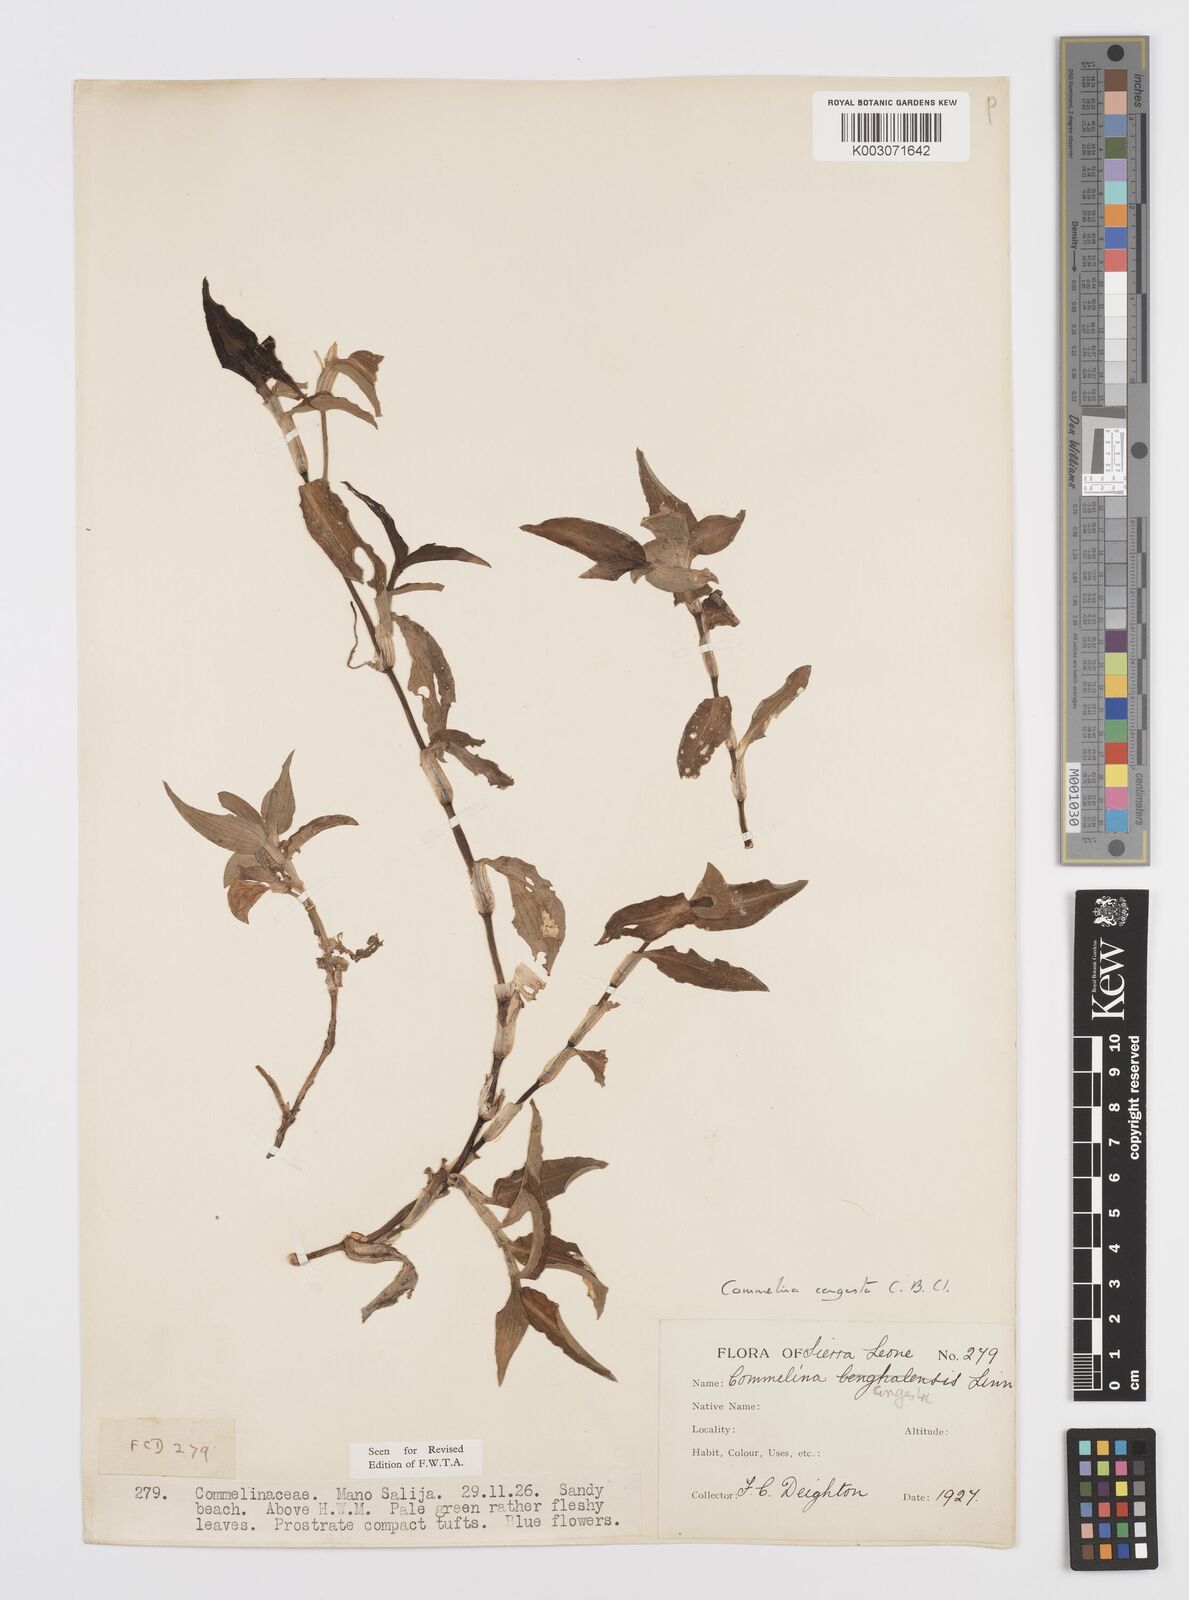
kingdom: Plantae
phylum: Tracheophyta
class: Liliopsida
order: Commelinales
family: Commelinaceae
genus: Commelina
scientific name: Commelina congesta
